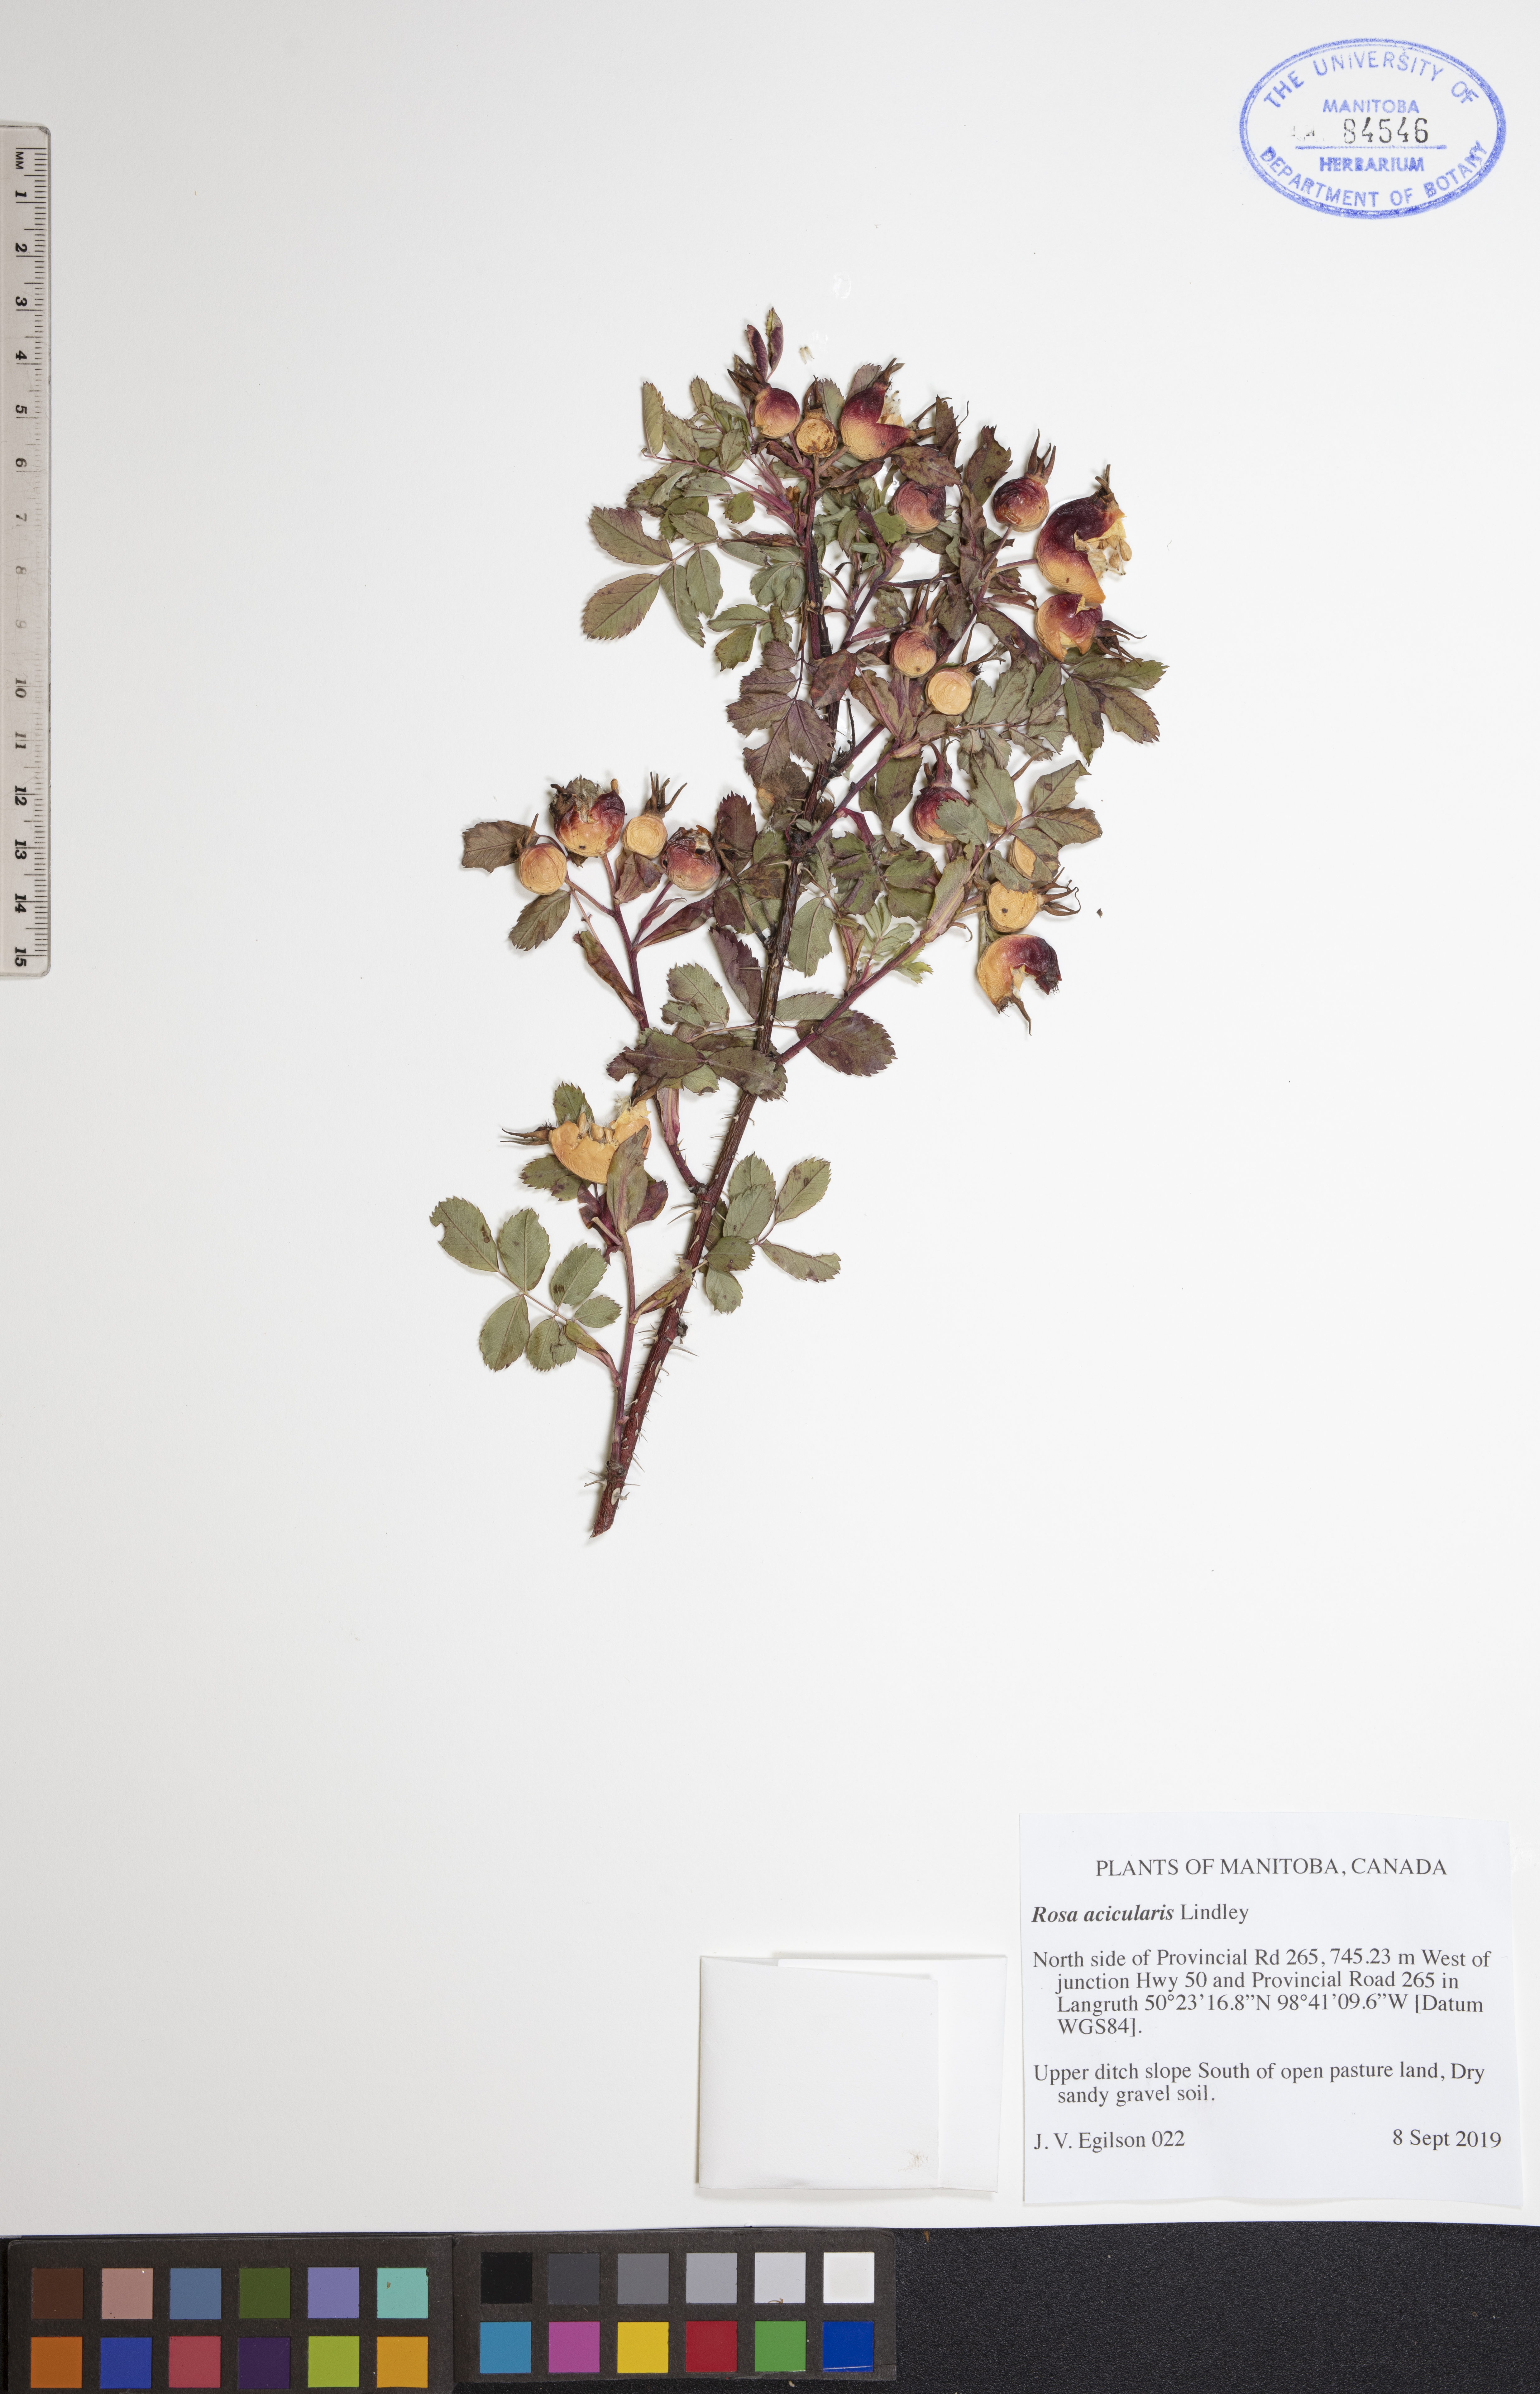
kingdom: Plantae
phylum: Tracheophyta
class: Magnoliopsida
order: Rosales
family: Rosaceae
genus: Rosa
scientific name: Rosa acicularis
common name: Prickly rose
